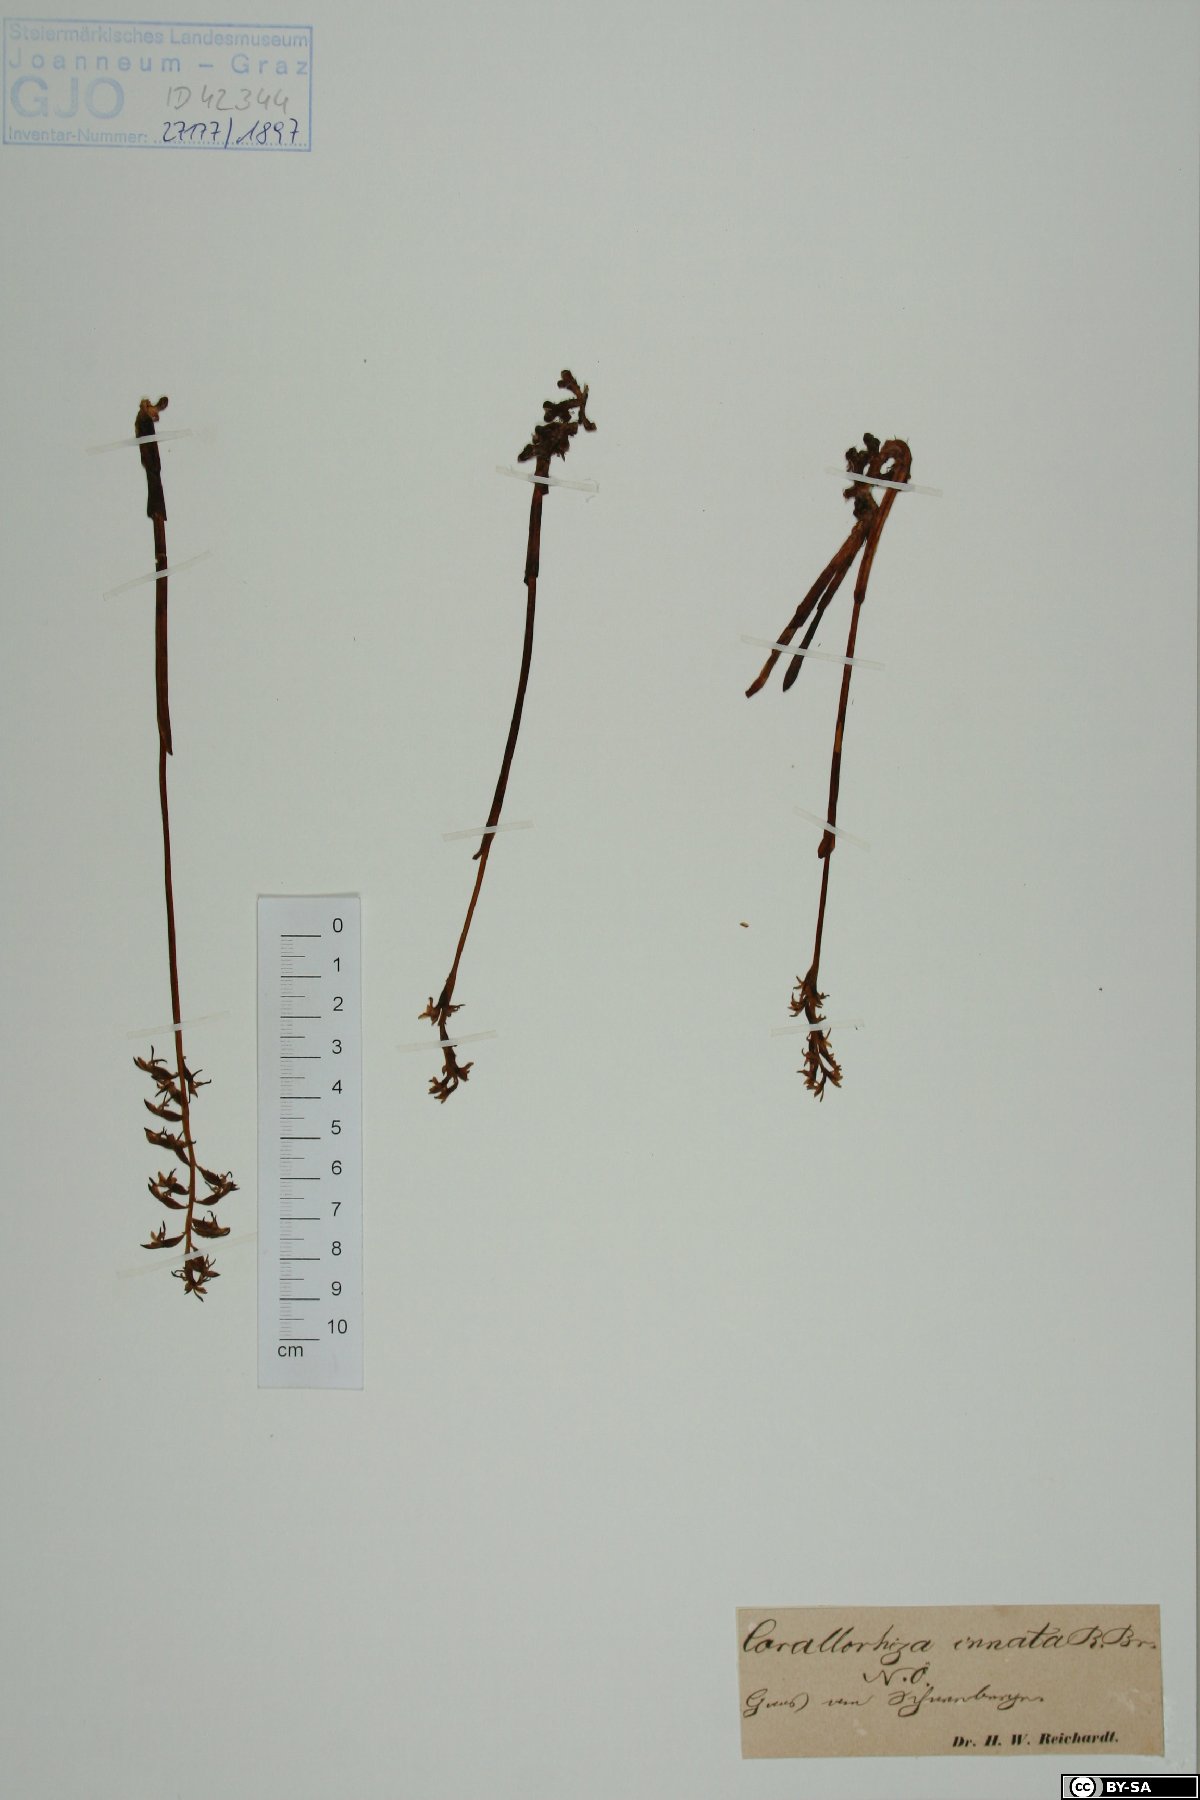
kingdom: Plantae
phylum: Tracheophyta
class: Liliopsida
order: Asparagales
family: Orchidaceae
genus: Corallorhiza
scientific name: Corallorhiza trifida
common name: Yellow coralroot
